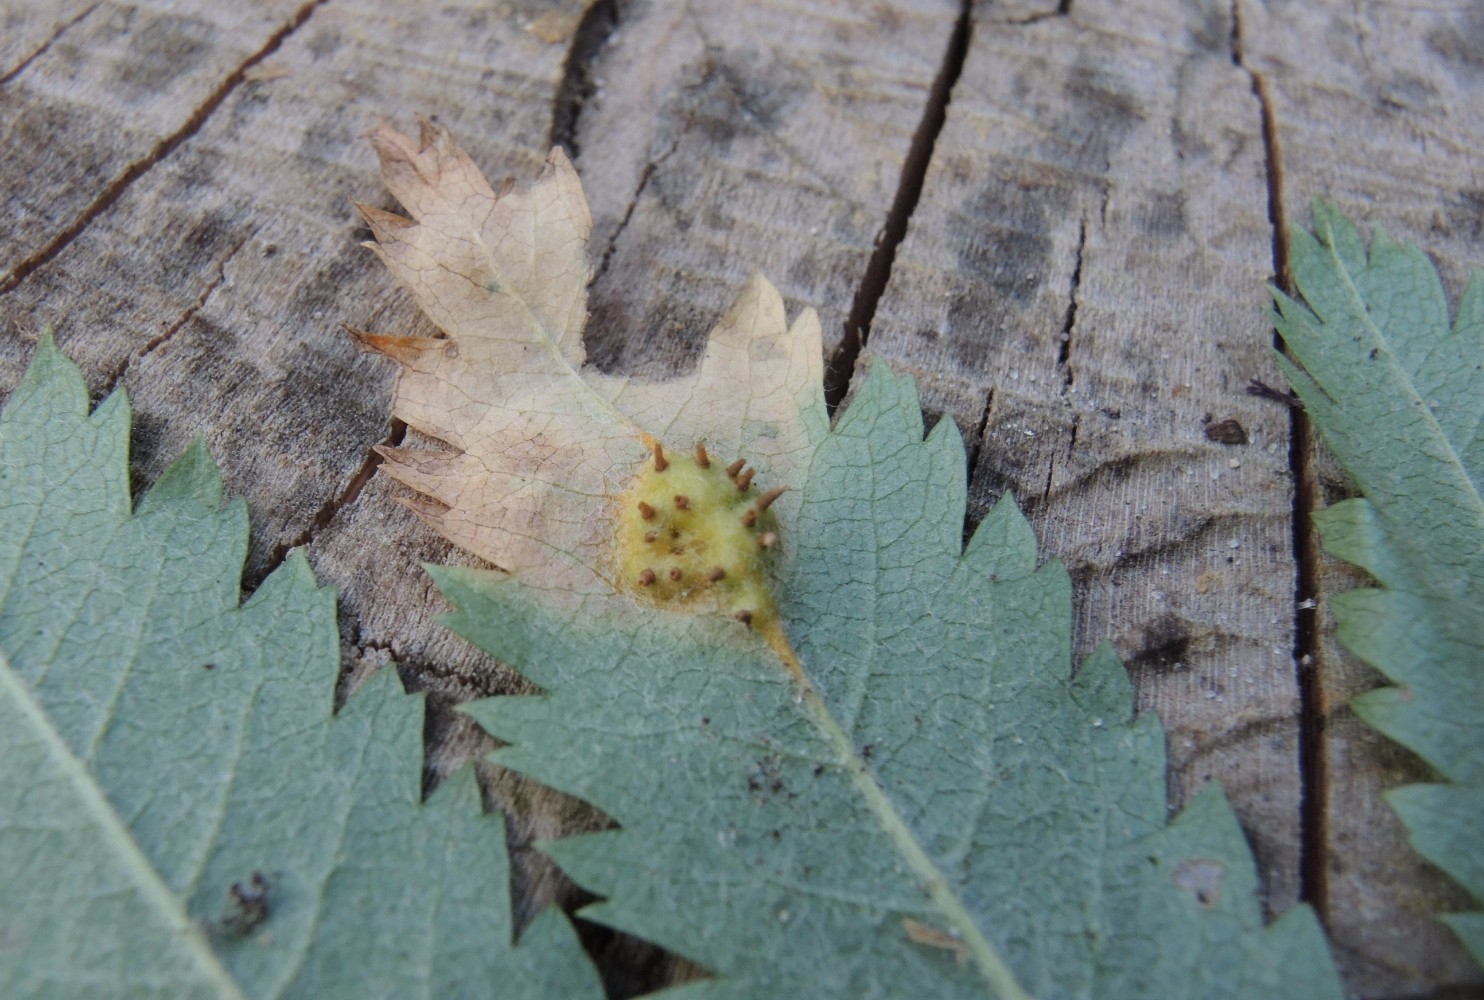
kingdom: Fungi
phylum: Basidiomycota
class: Pucciniomycetes
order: Pucciniales
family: Gymnosporangiaceae
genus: Gymnosporangium
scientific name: Gymnosporangium cornutum
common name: rønnehorn-bævrerust
